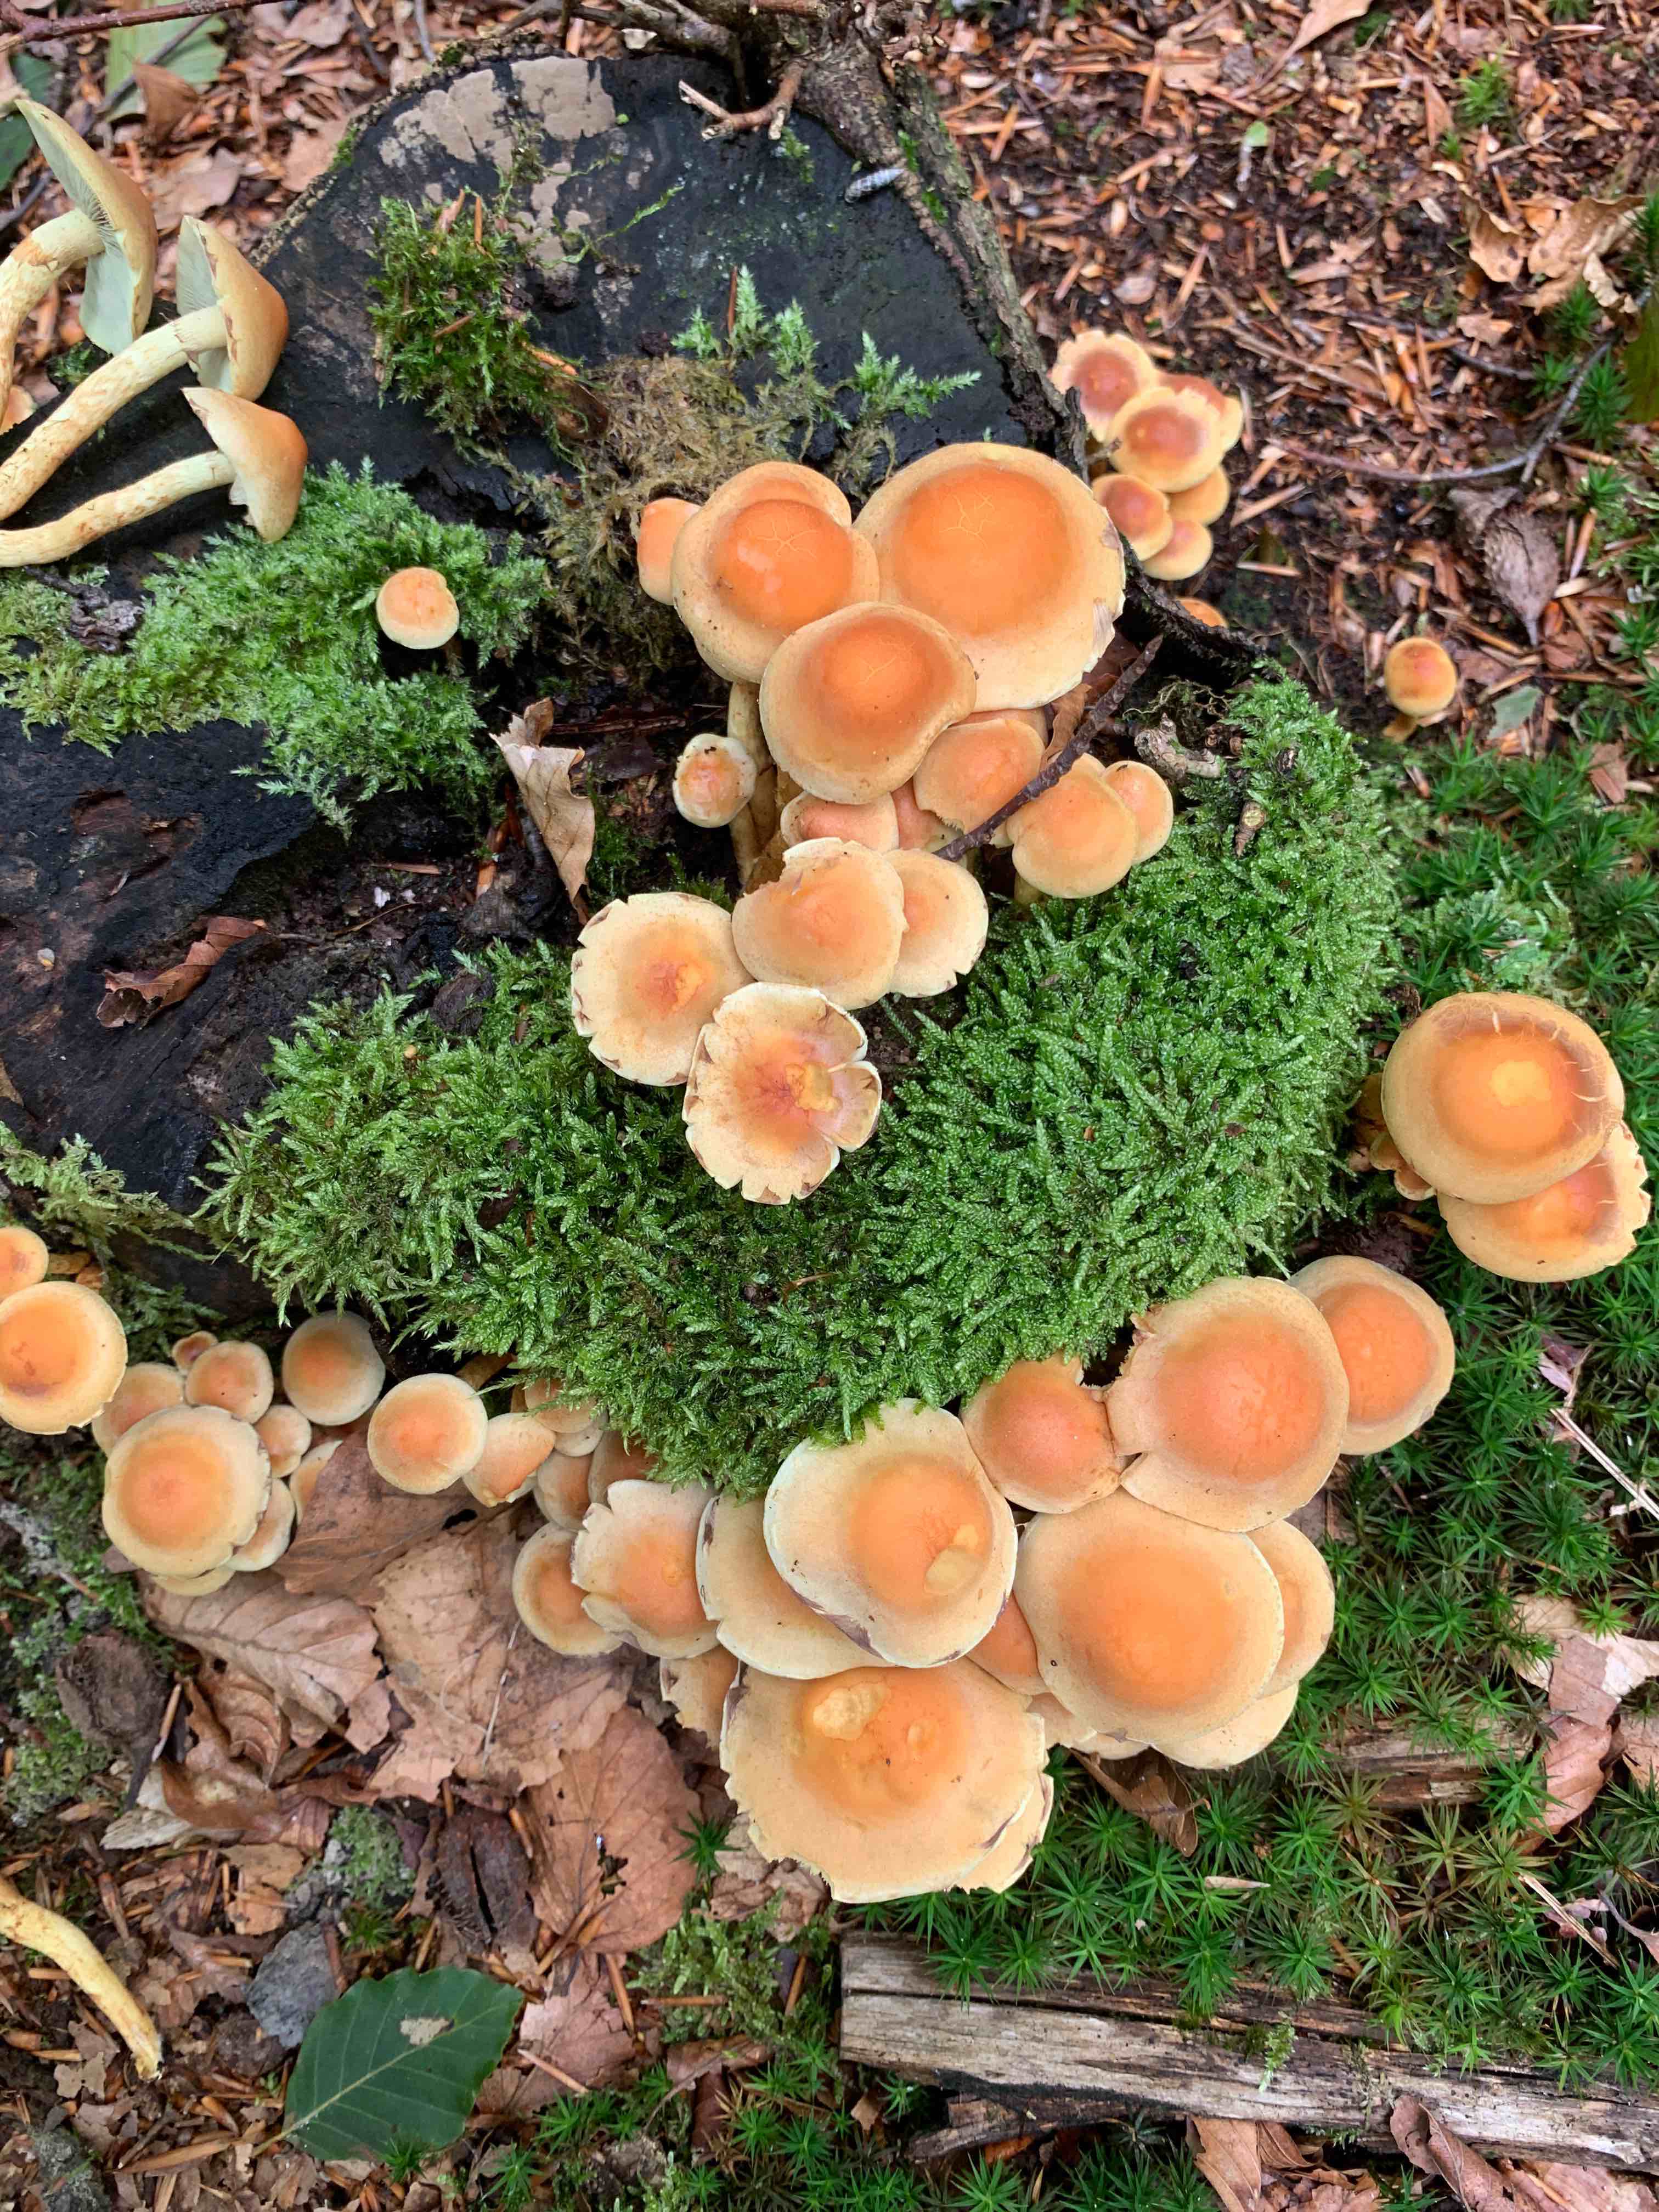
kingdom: Fungi
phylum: Basidiomycota
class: Agaricomycetes
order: Agaricales
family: Strophariaceae
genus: Hypholoma
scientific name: Hypholoma fasciculare
